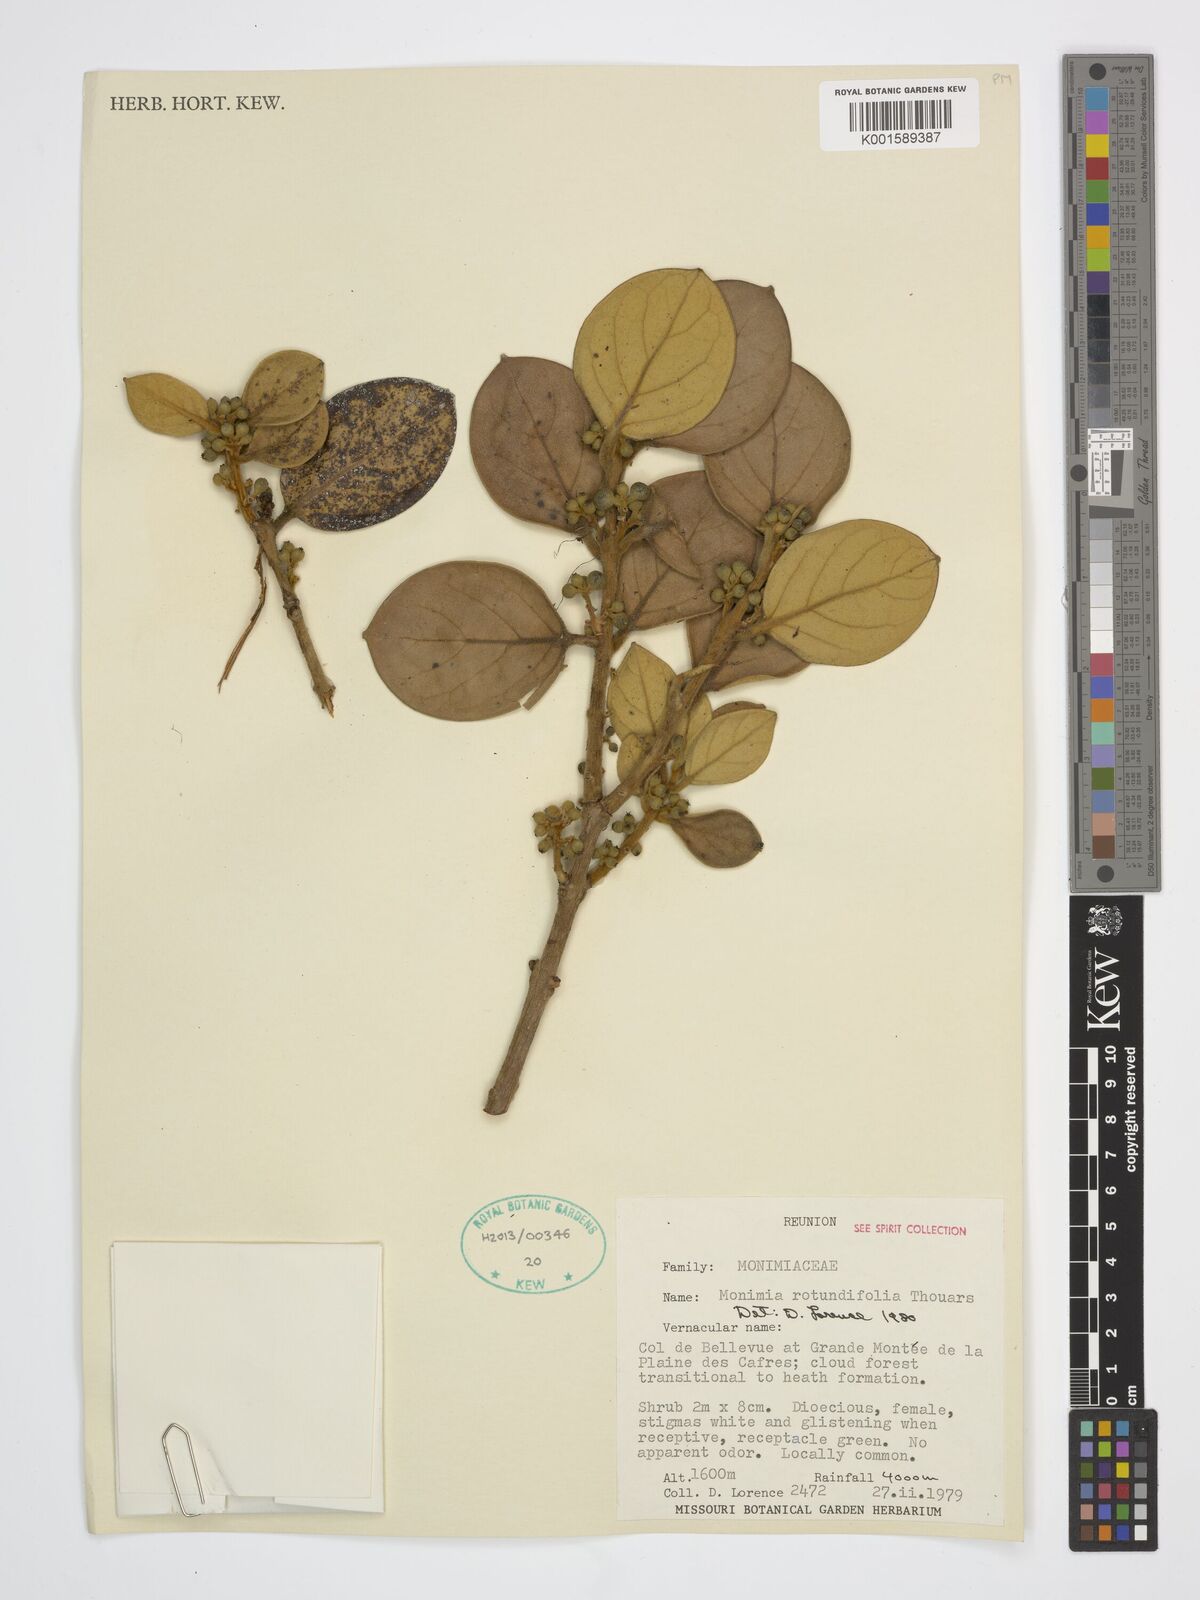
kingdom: Plantae
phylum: Tracheophyta
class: Magnoliopsida
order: Laurales
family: Monimiaceae
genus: Monimia
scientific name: Monimia rotundifolia
